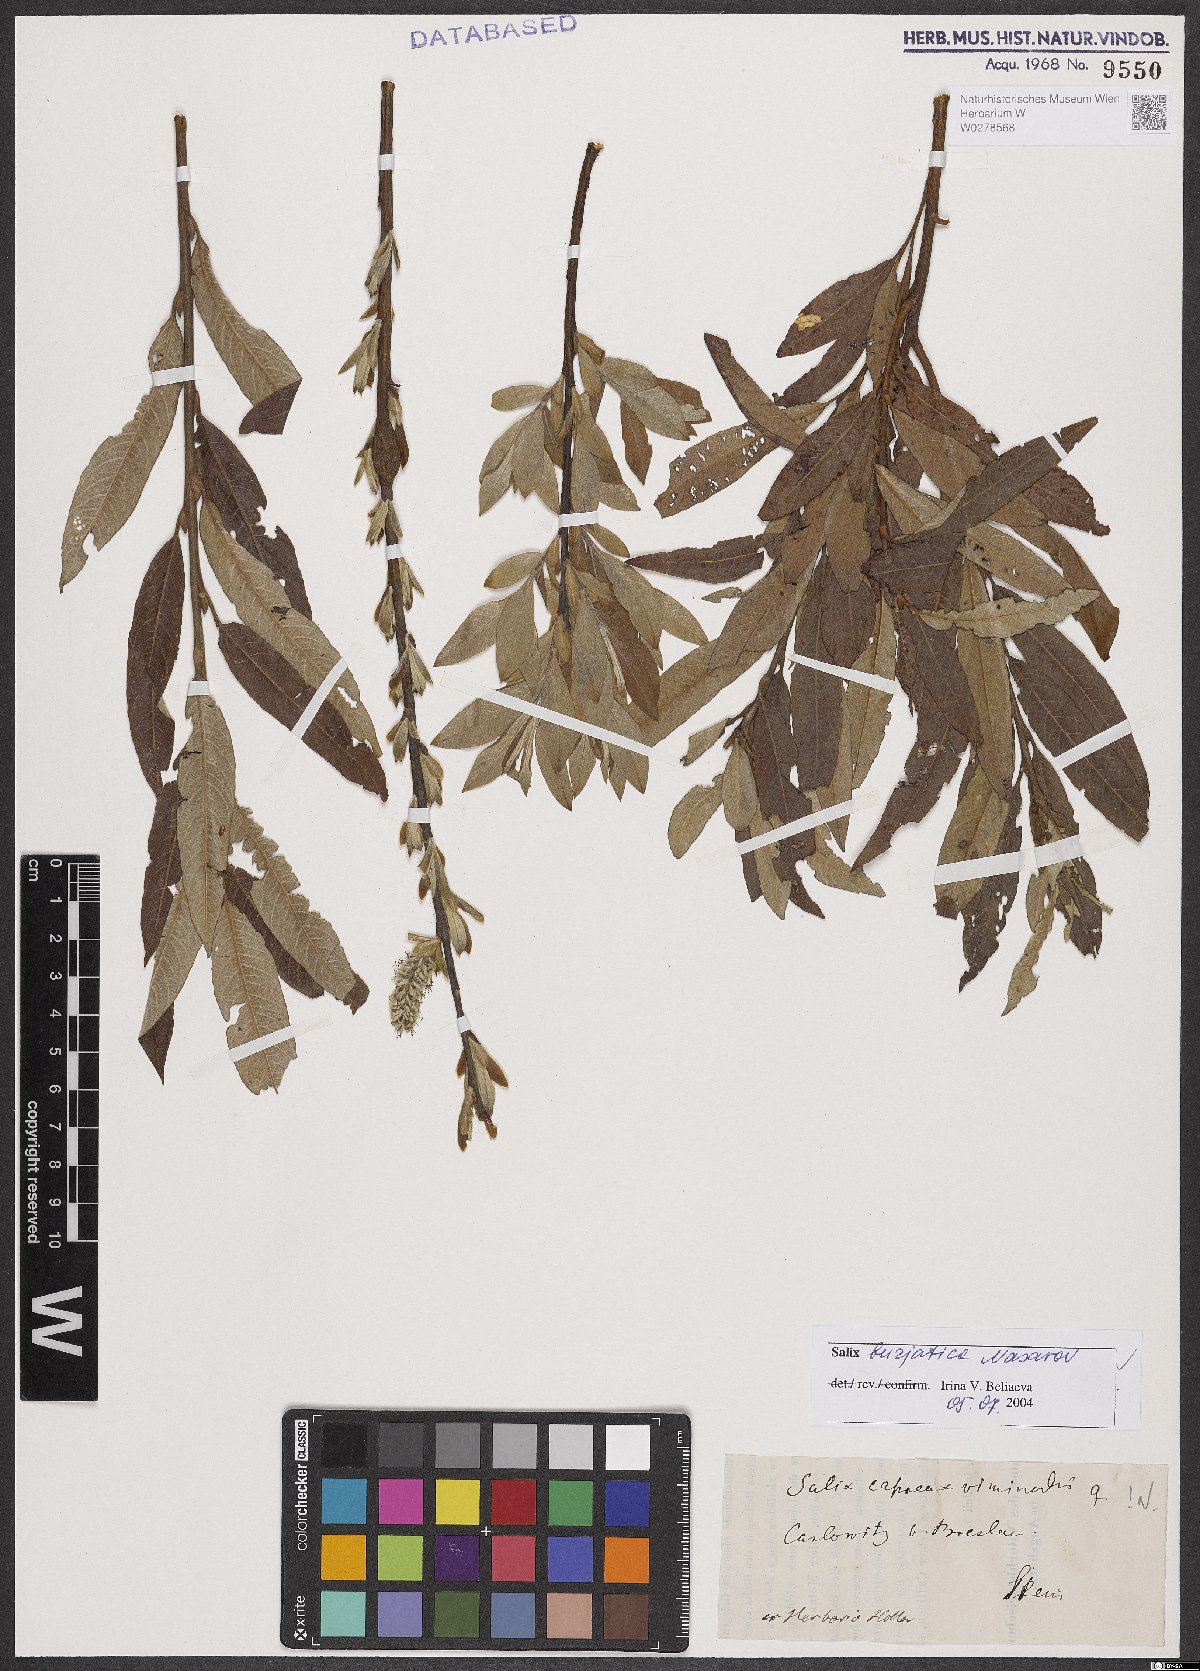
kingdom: Plantae
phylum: Tracheophyta
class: Magnoliopsida
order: Malpighiales
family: Salicaceae
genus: Salix
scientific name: Salix gmelinii
